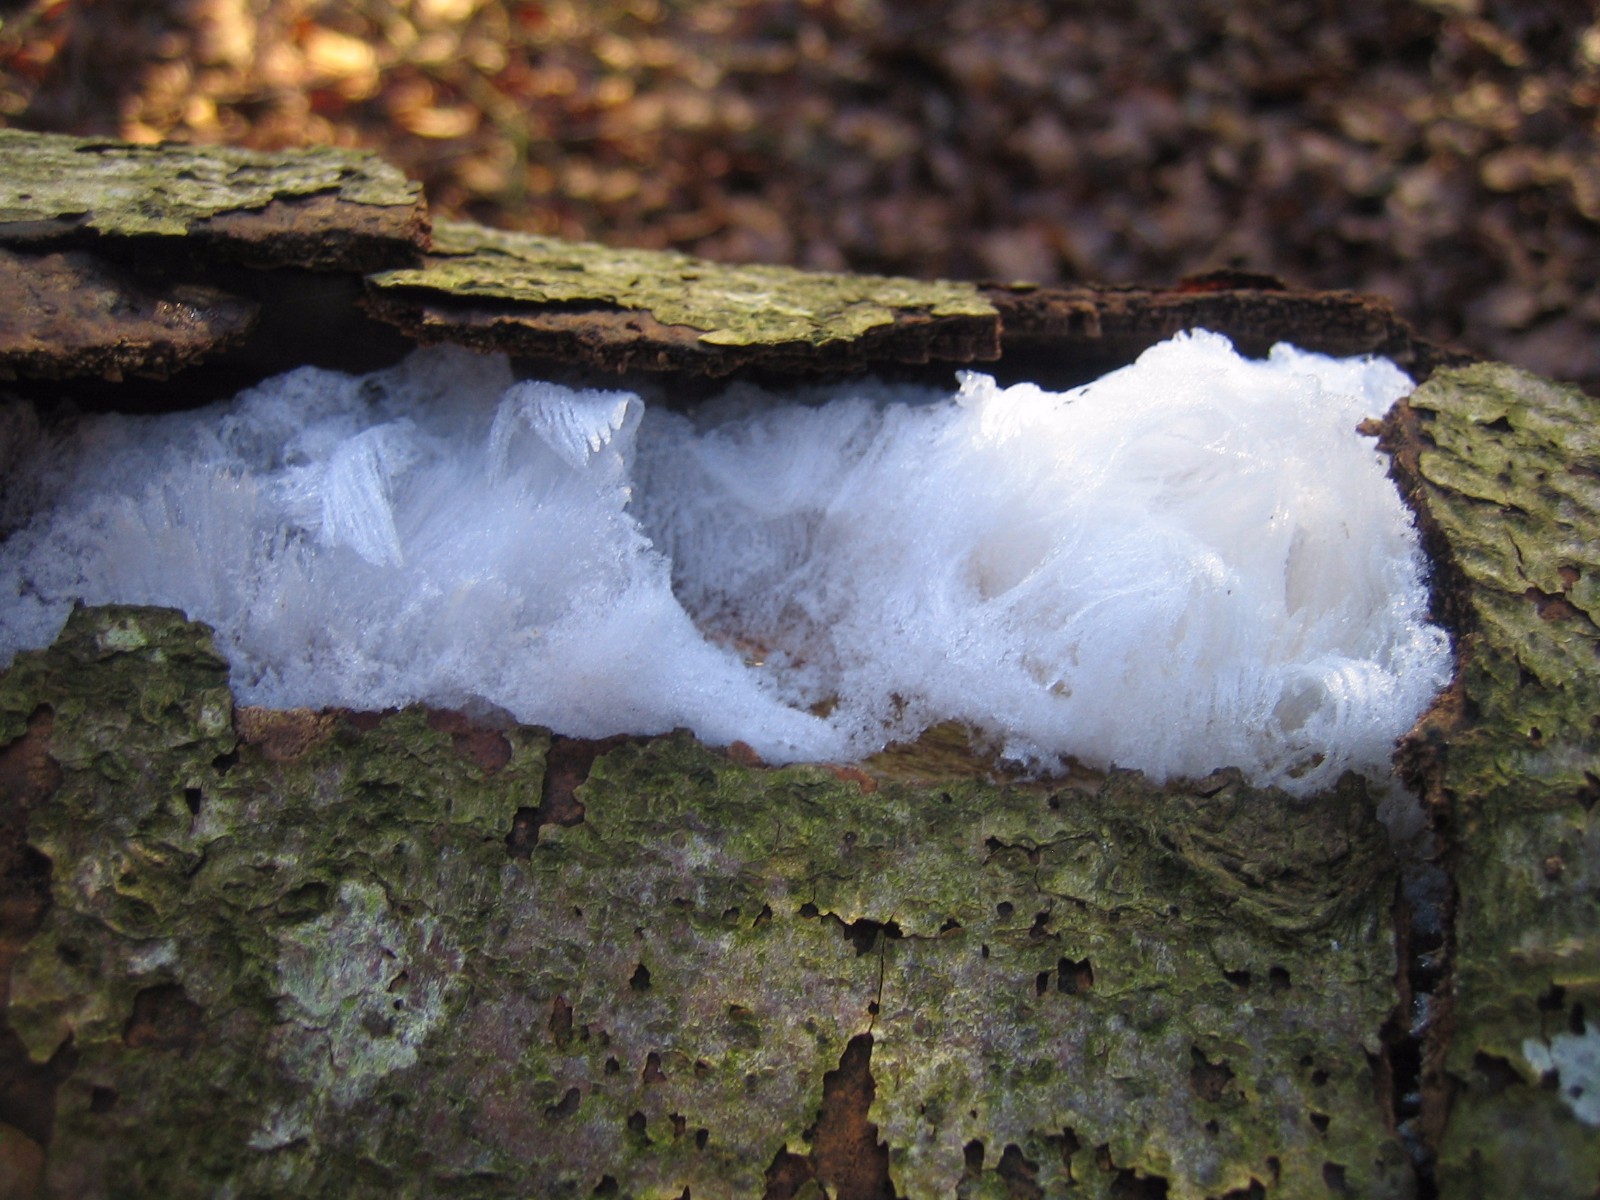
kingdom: Fungi
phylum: Basidiomycota
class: Tremellomycetes
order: Tremellales
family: Exidiaceae
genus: Exidiopsis
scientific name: Exidiopsis effusa
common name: smuk bævrehinde
